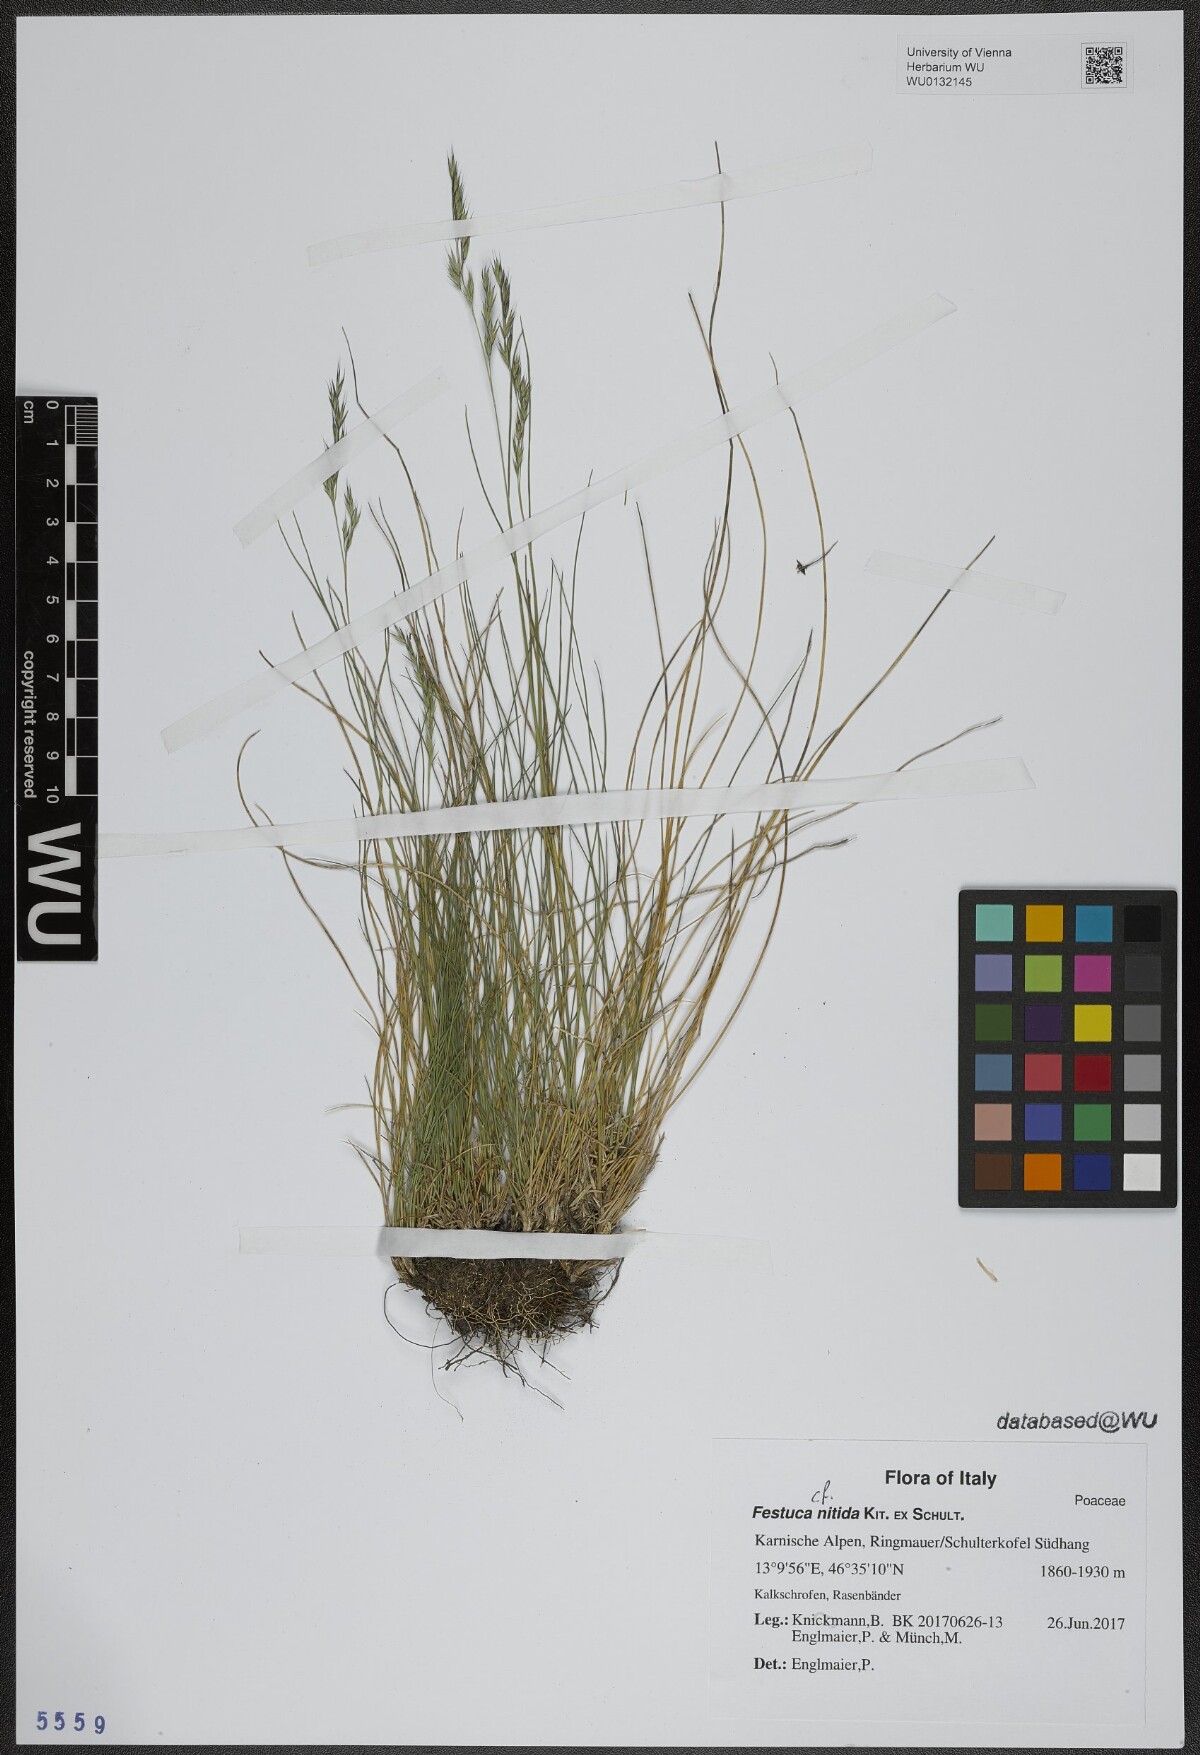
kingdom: Plantae
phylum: Tracheophyta
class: Liliopsida
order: Poales
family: Poaceae
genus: Festuca
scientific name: Festuca nitida
